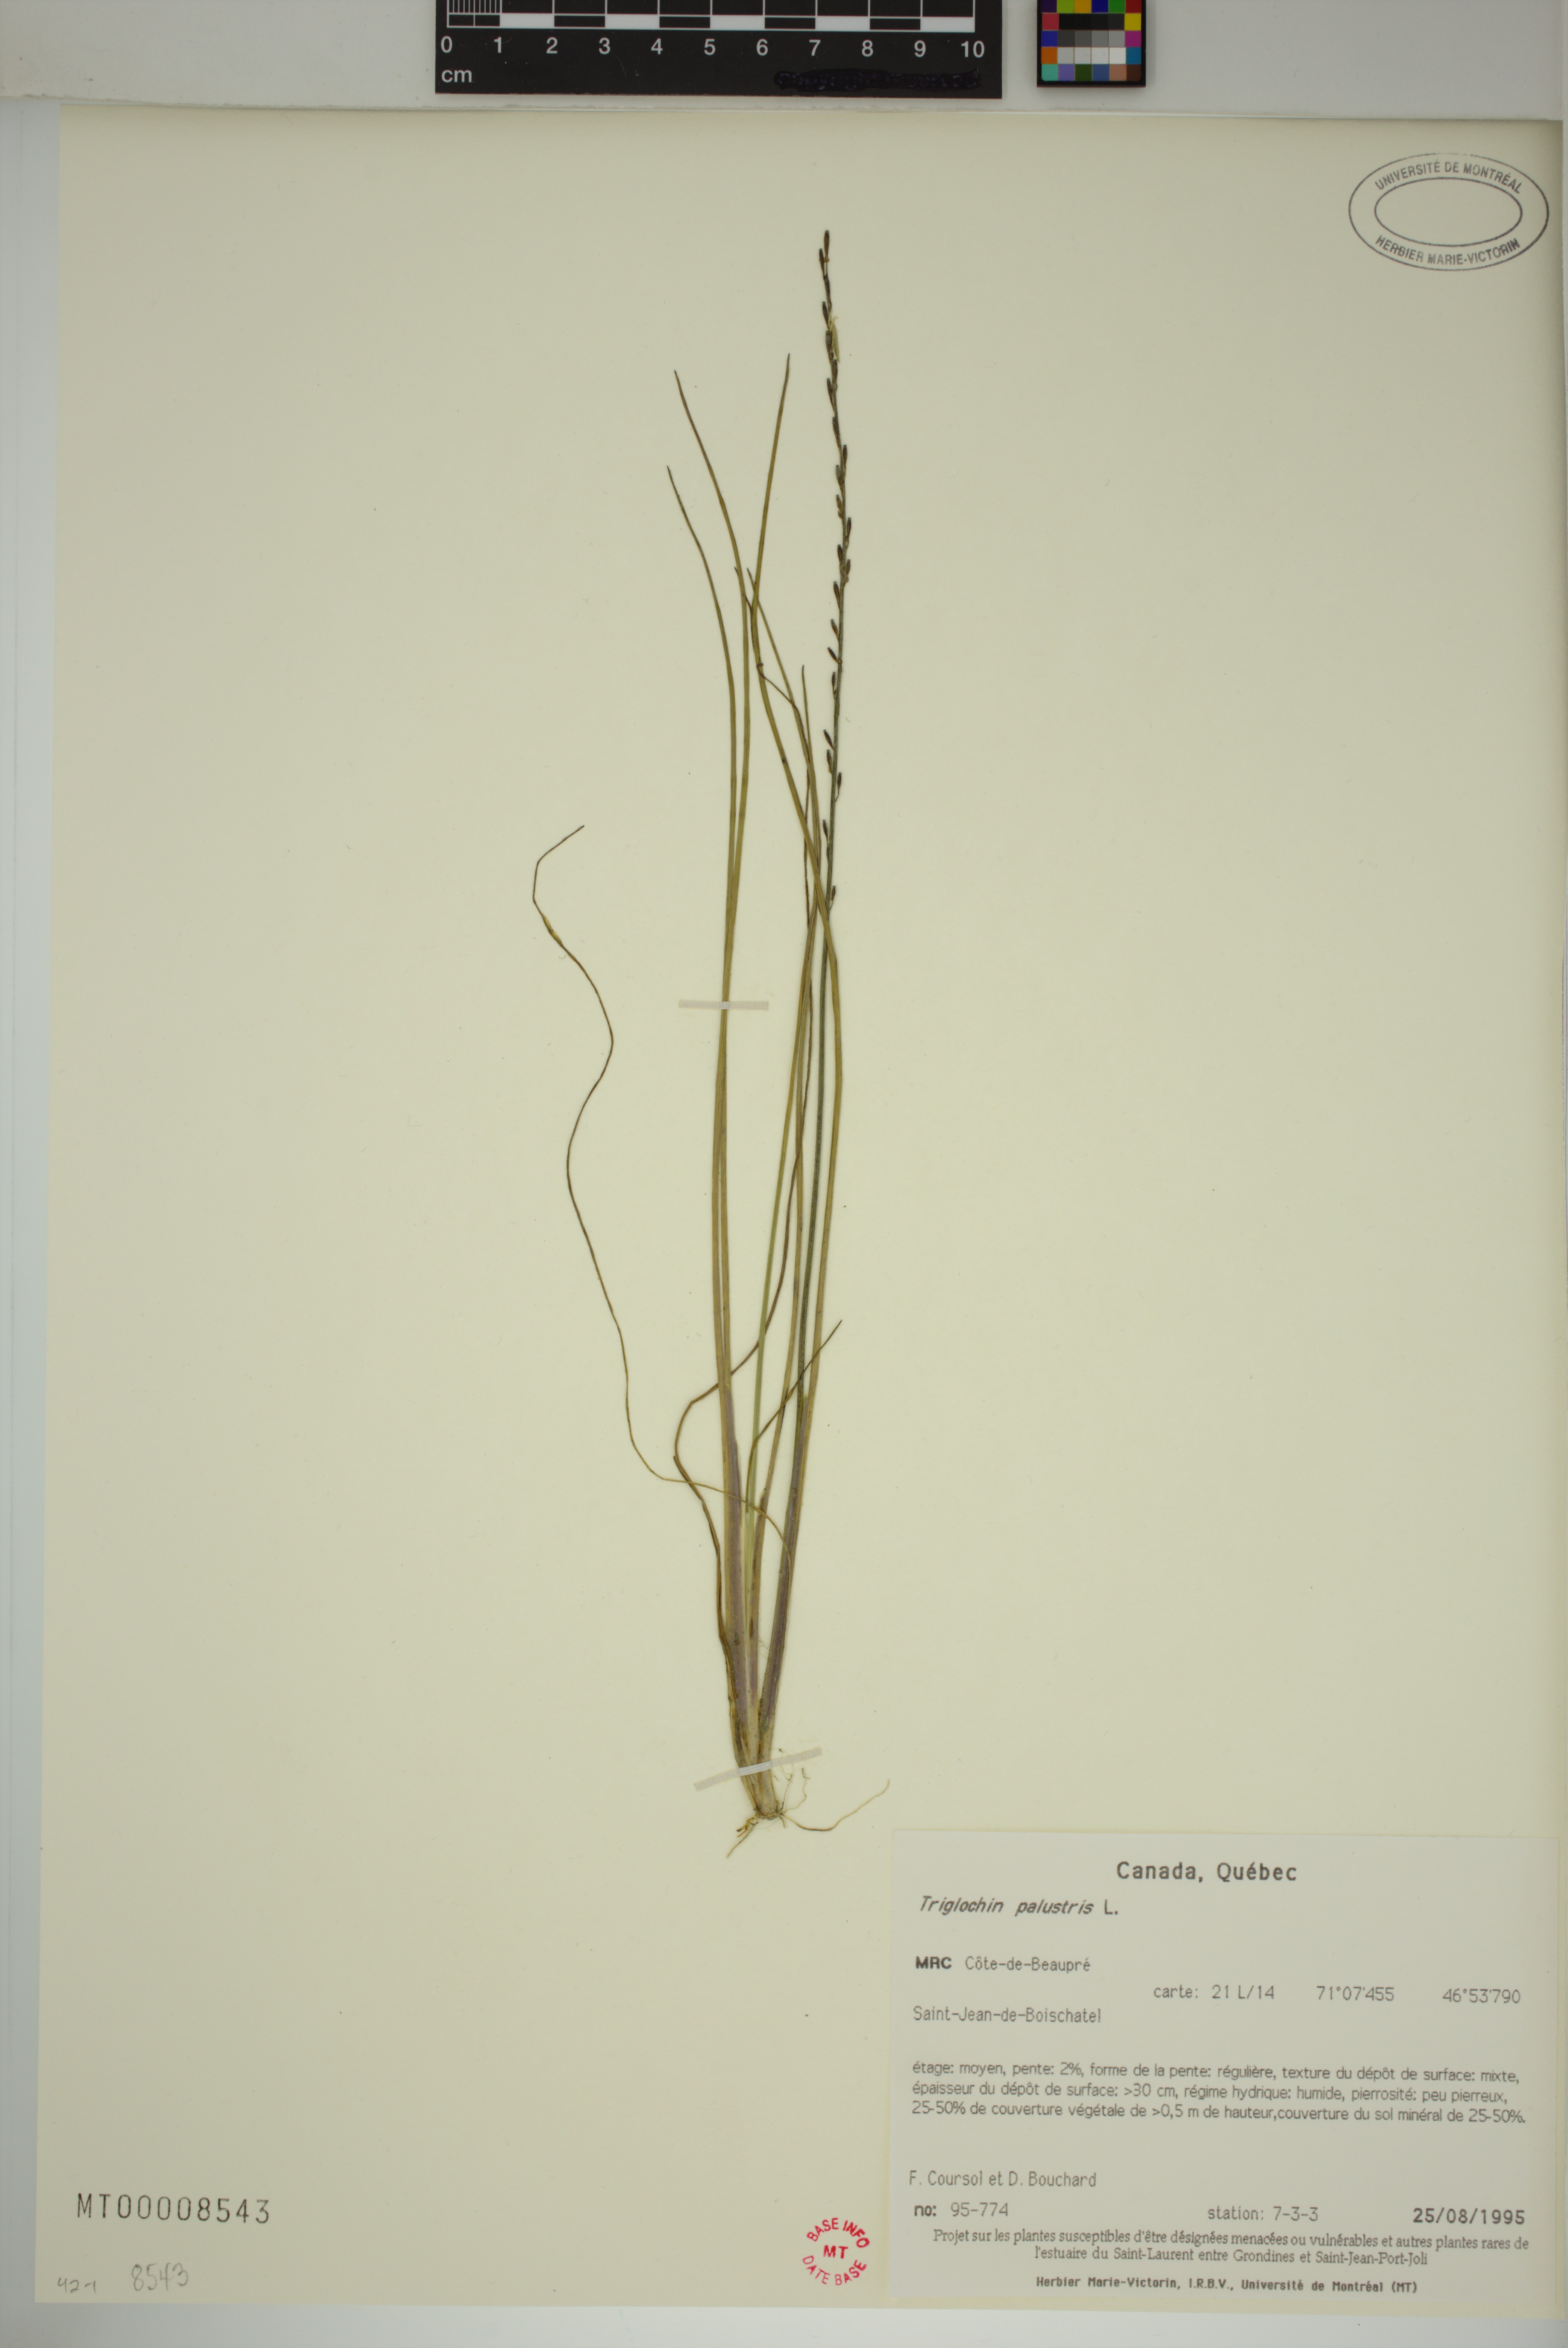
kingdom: Plantae
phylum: Tracheophyta
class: Liliopsida
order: Alismatales
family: Juncaginaceae
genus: Triglochin
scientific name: Triglochin palustris
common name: Marsh arrowgrass
